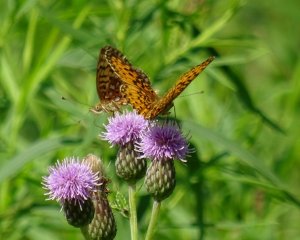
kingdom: Animalia
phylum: Arthropoda
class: Insecta
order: Lepidoptera
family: Nymphalidae
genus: Boloria
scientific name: Boloria selene
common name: Silver-bordered Fritillary
